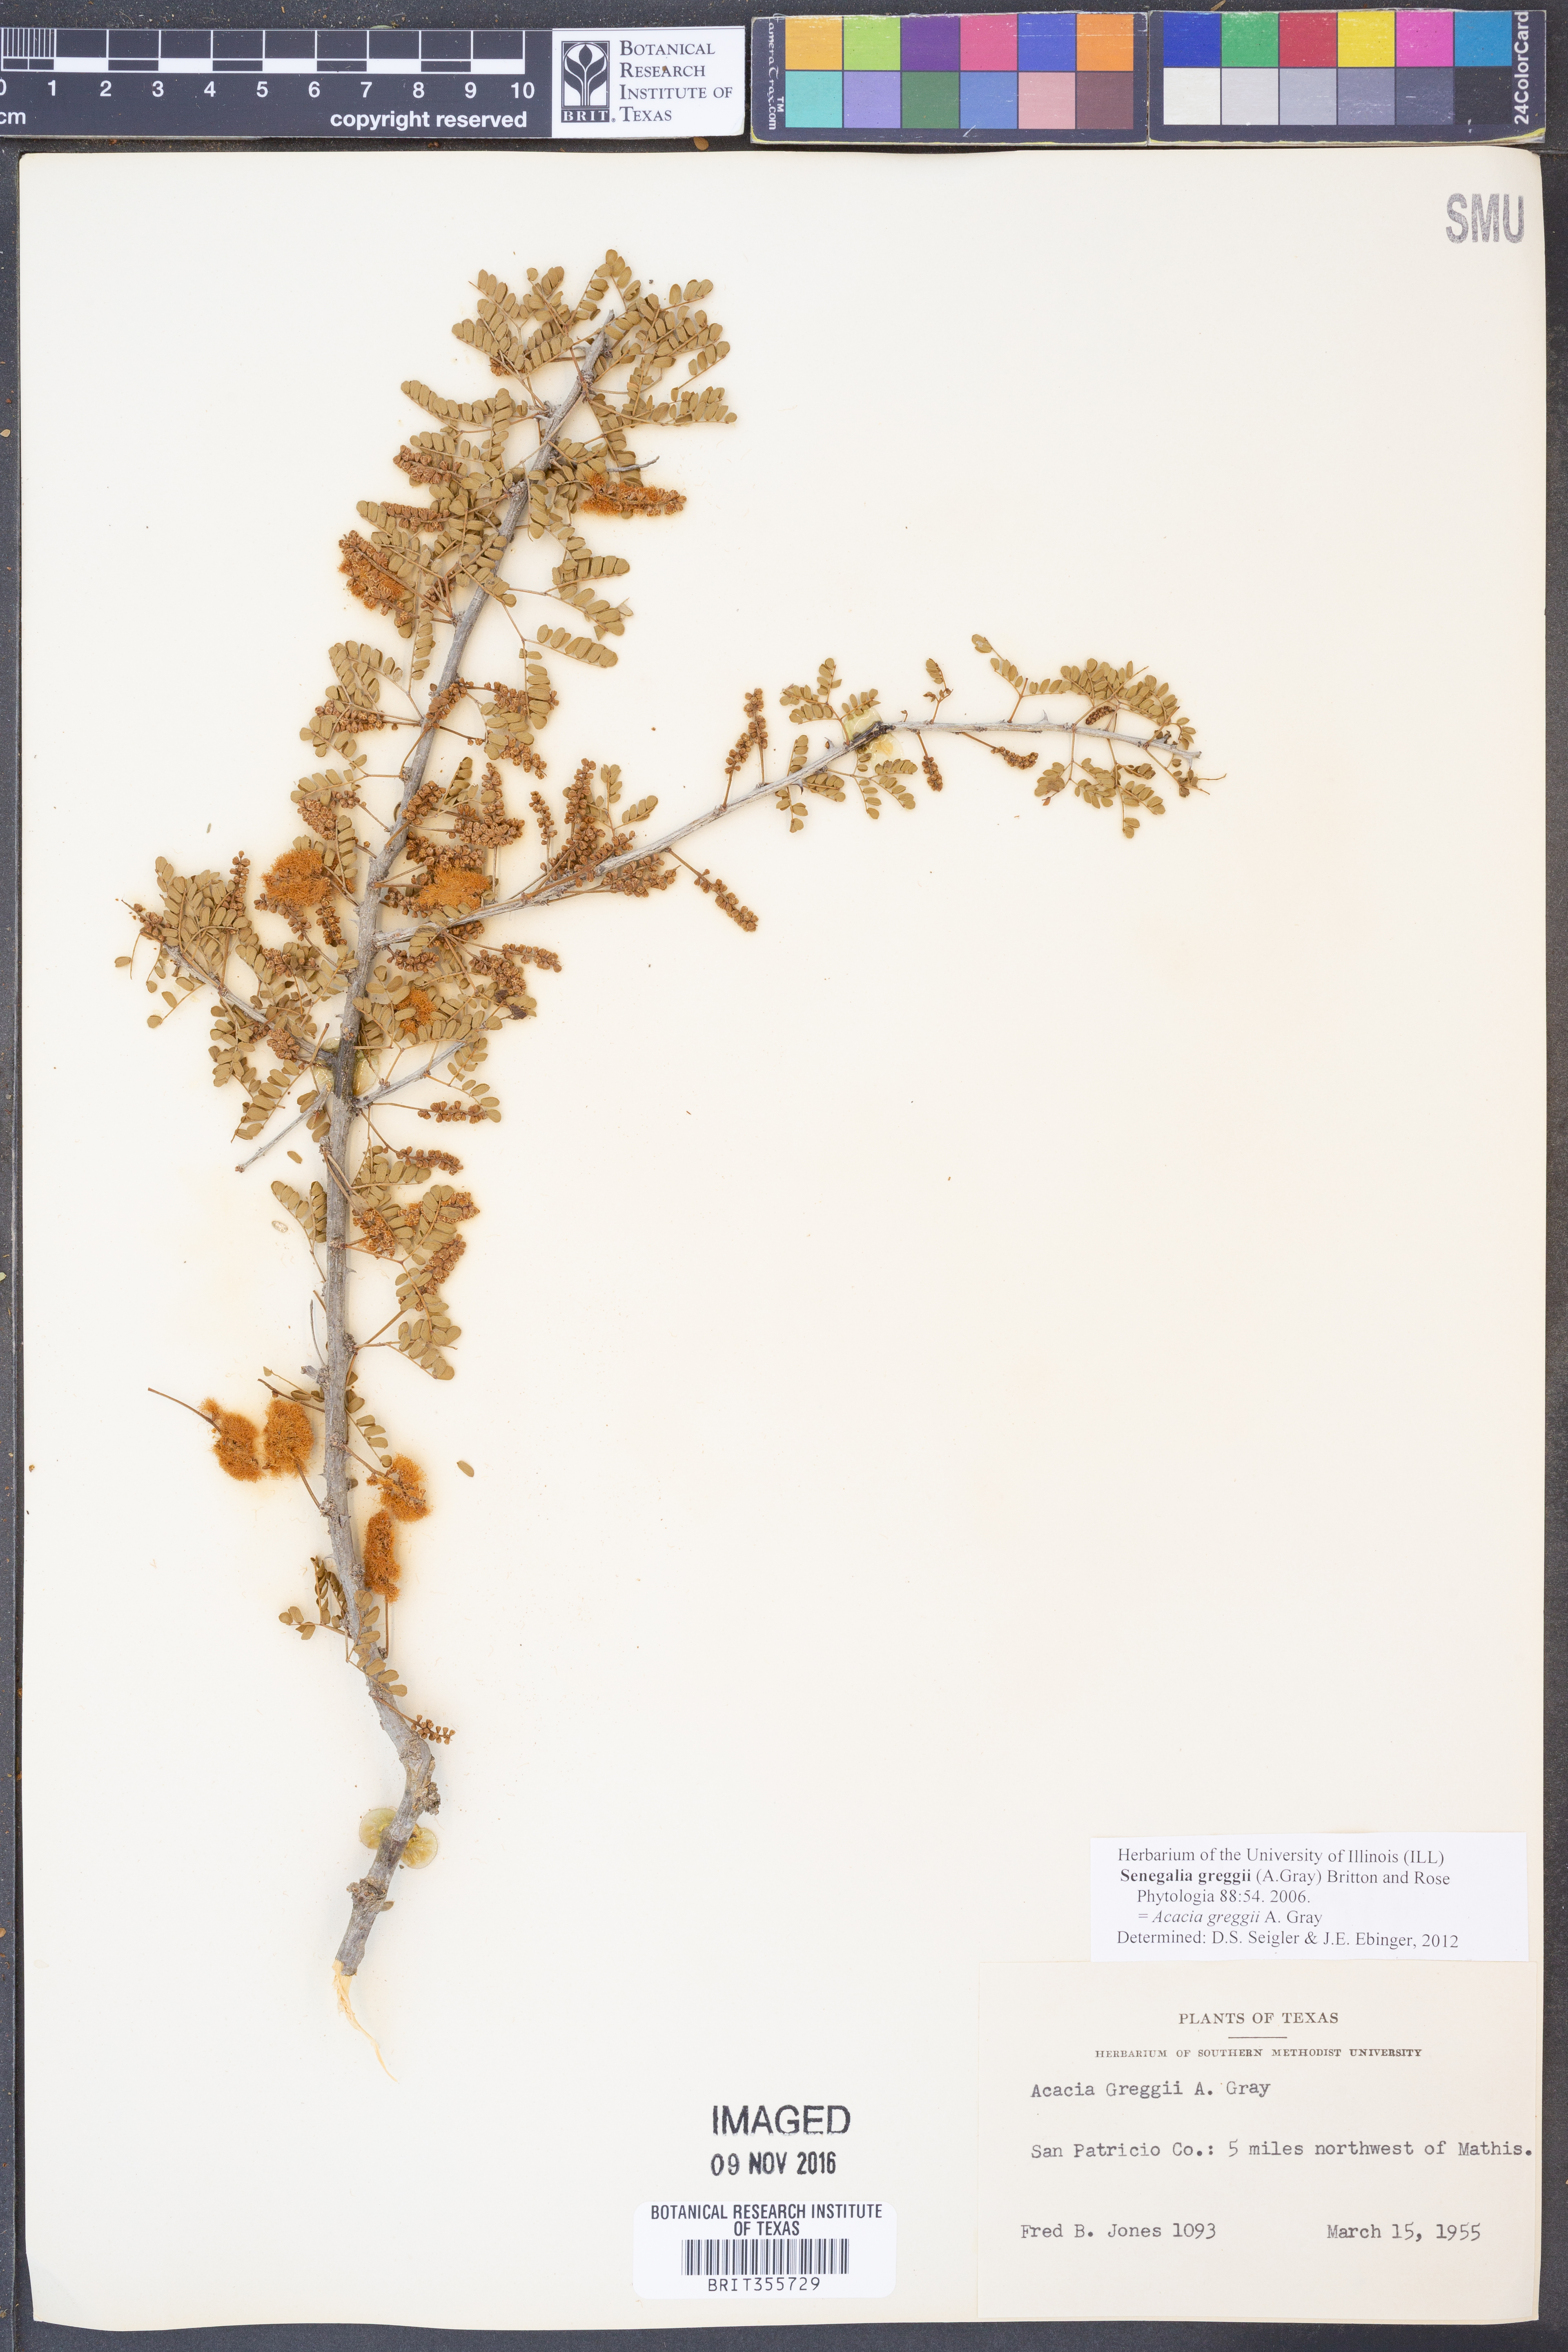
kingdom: Plantae
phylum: Tracheophyta
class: Magnoliopsida
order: Fabales
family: Fabaceae
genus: Senegalia
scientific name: Senegalia greggii
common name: Texas-mimosa
